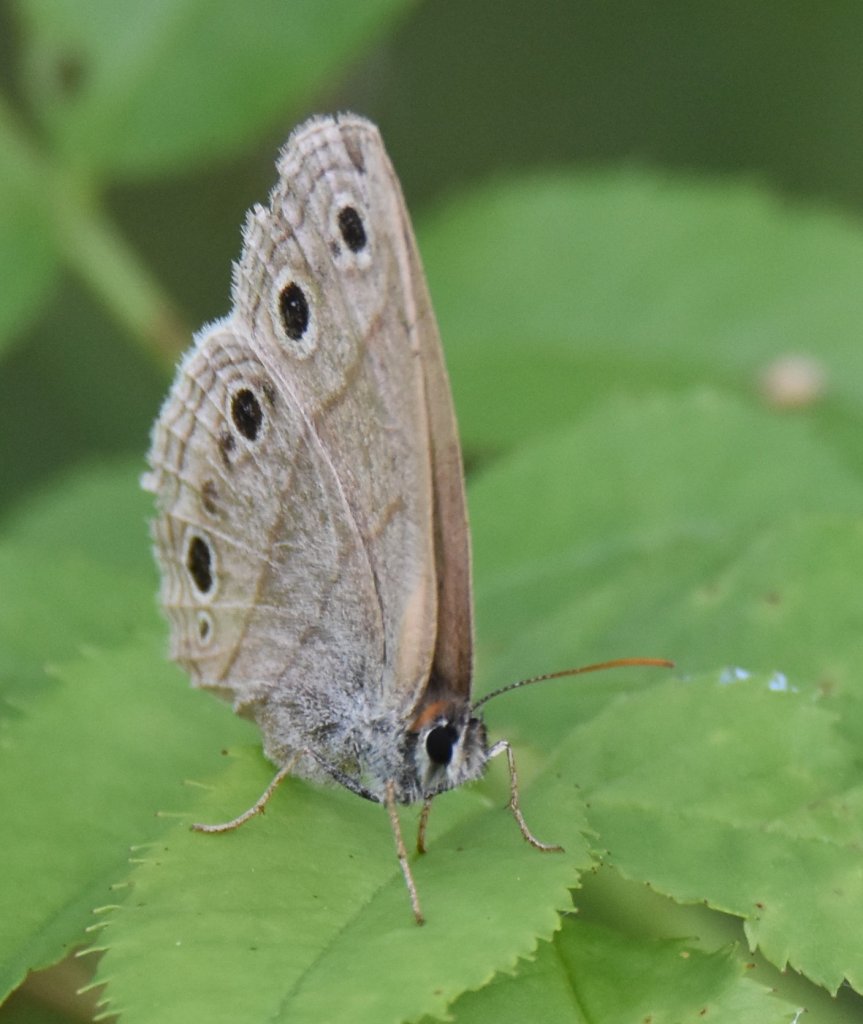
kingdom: Animalia
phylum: Arthropoda
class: Insecta
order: Lepidoptera
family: Nymphalidae
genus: Euptychia
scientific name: Euptychia cymela
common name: Little Wood Satyr
